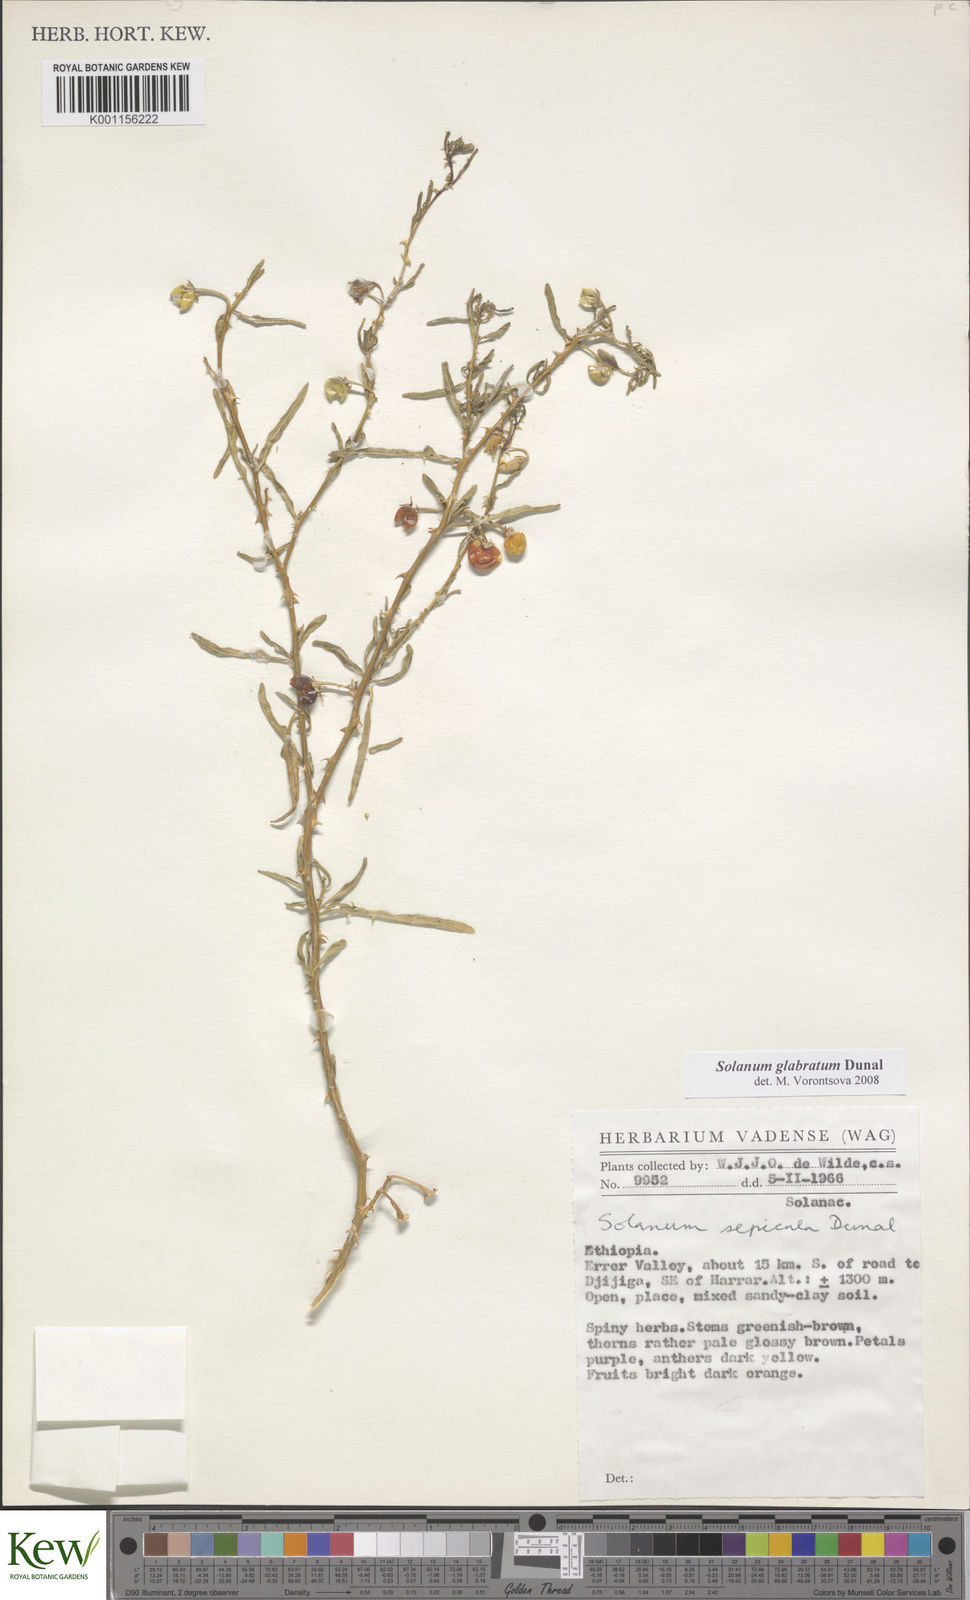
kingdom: Plantae
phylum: Tracheophyta
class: Magnoliopsida
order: Solanales
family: Solanaceae
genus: Solanum
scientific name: Solanum glabratum
